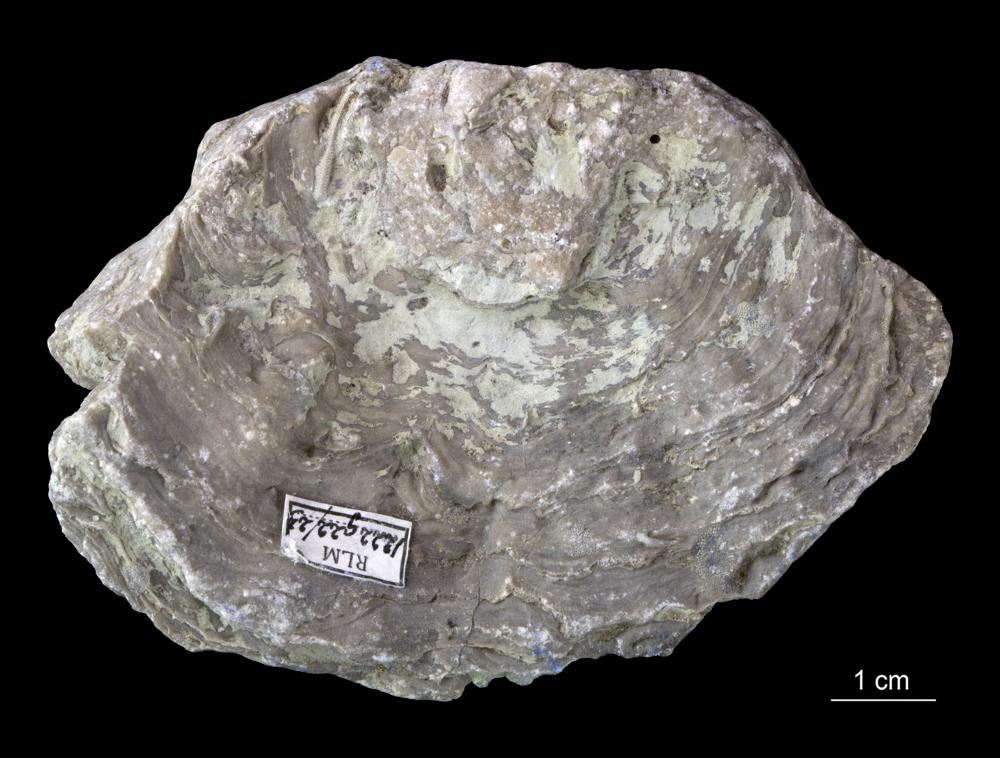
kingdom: Animalia
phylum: Porifera
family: Stromatoporidae
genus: Stromatopora
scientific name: Stromatopora
